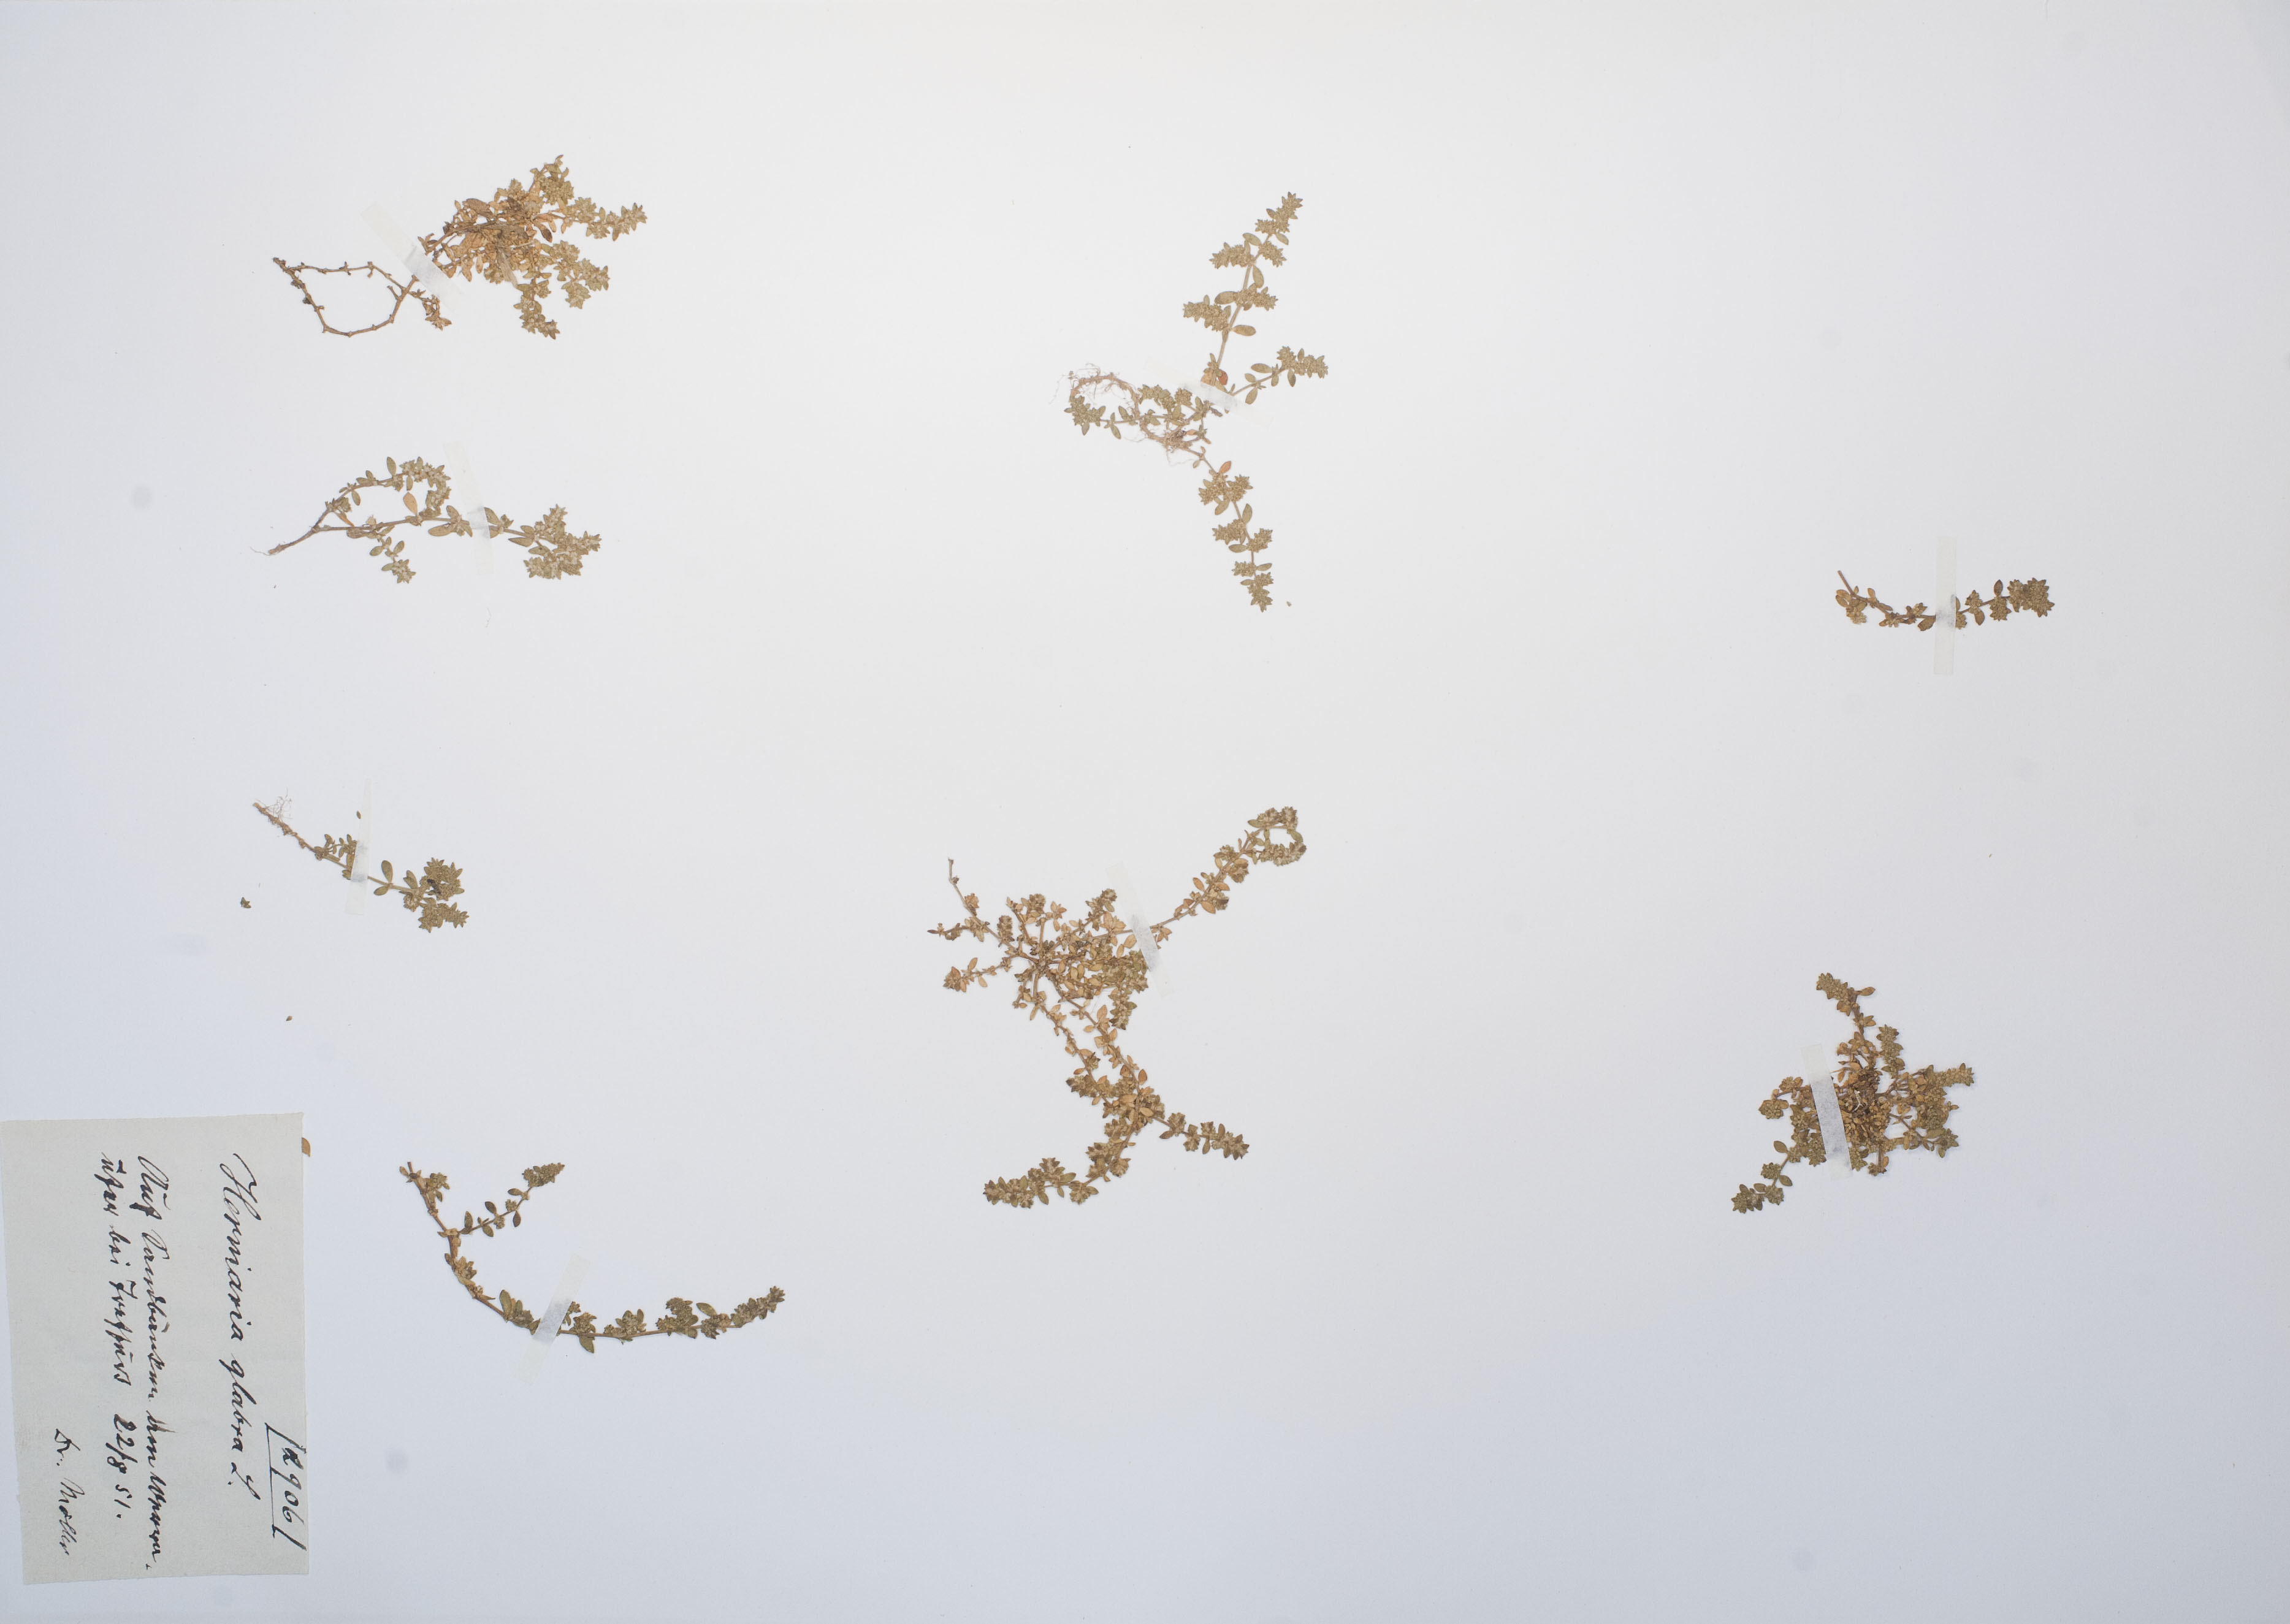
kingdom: Plantae
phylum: Tracheophyta
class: Magnoliopsida
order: Caryophyllales
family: Caryophyllaceae
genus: Herniaria
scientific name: Herniaria glabra
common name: Smooth rupturewort
